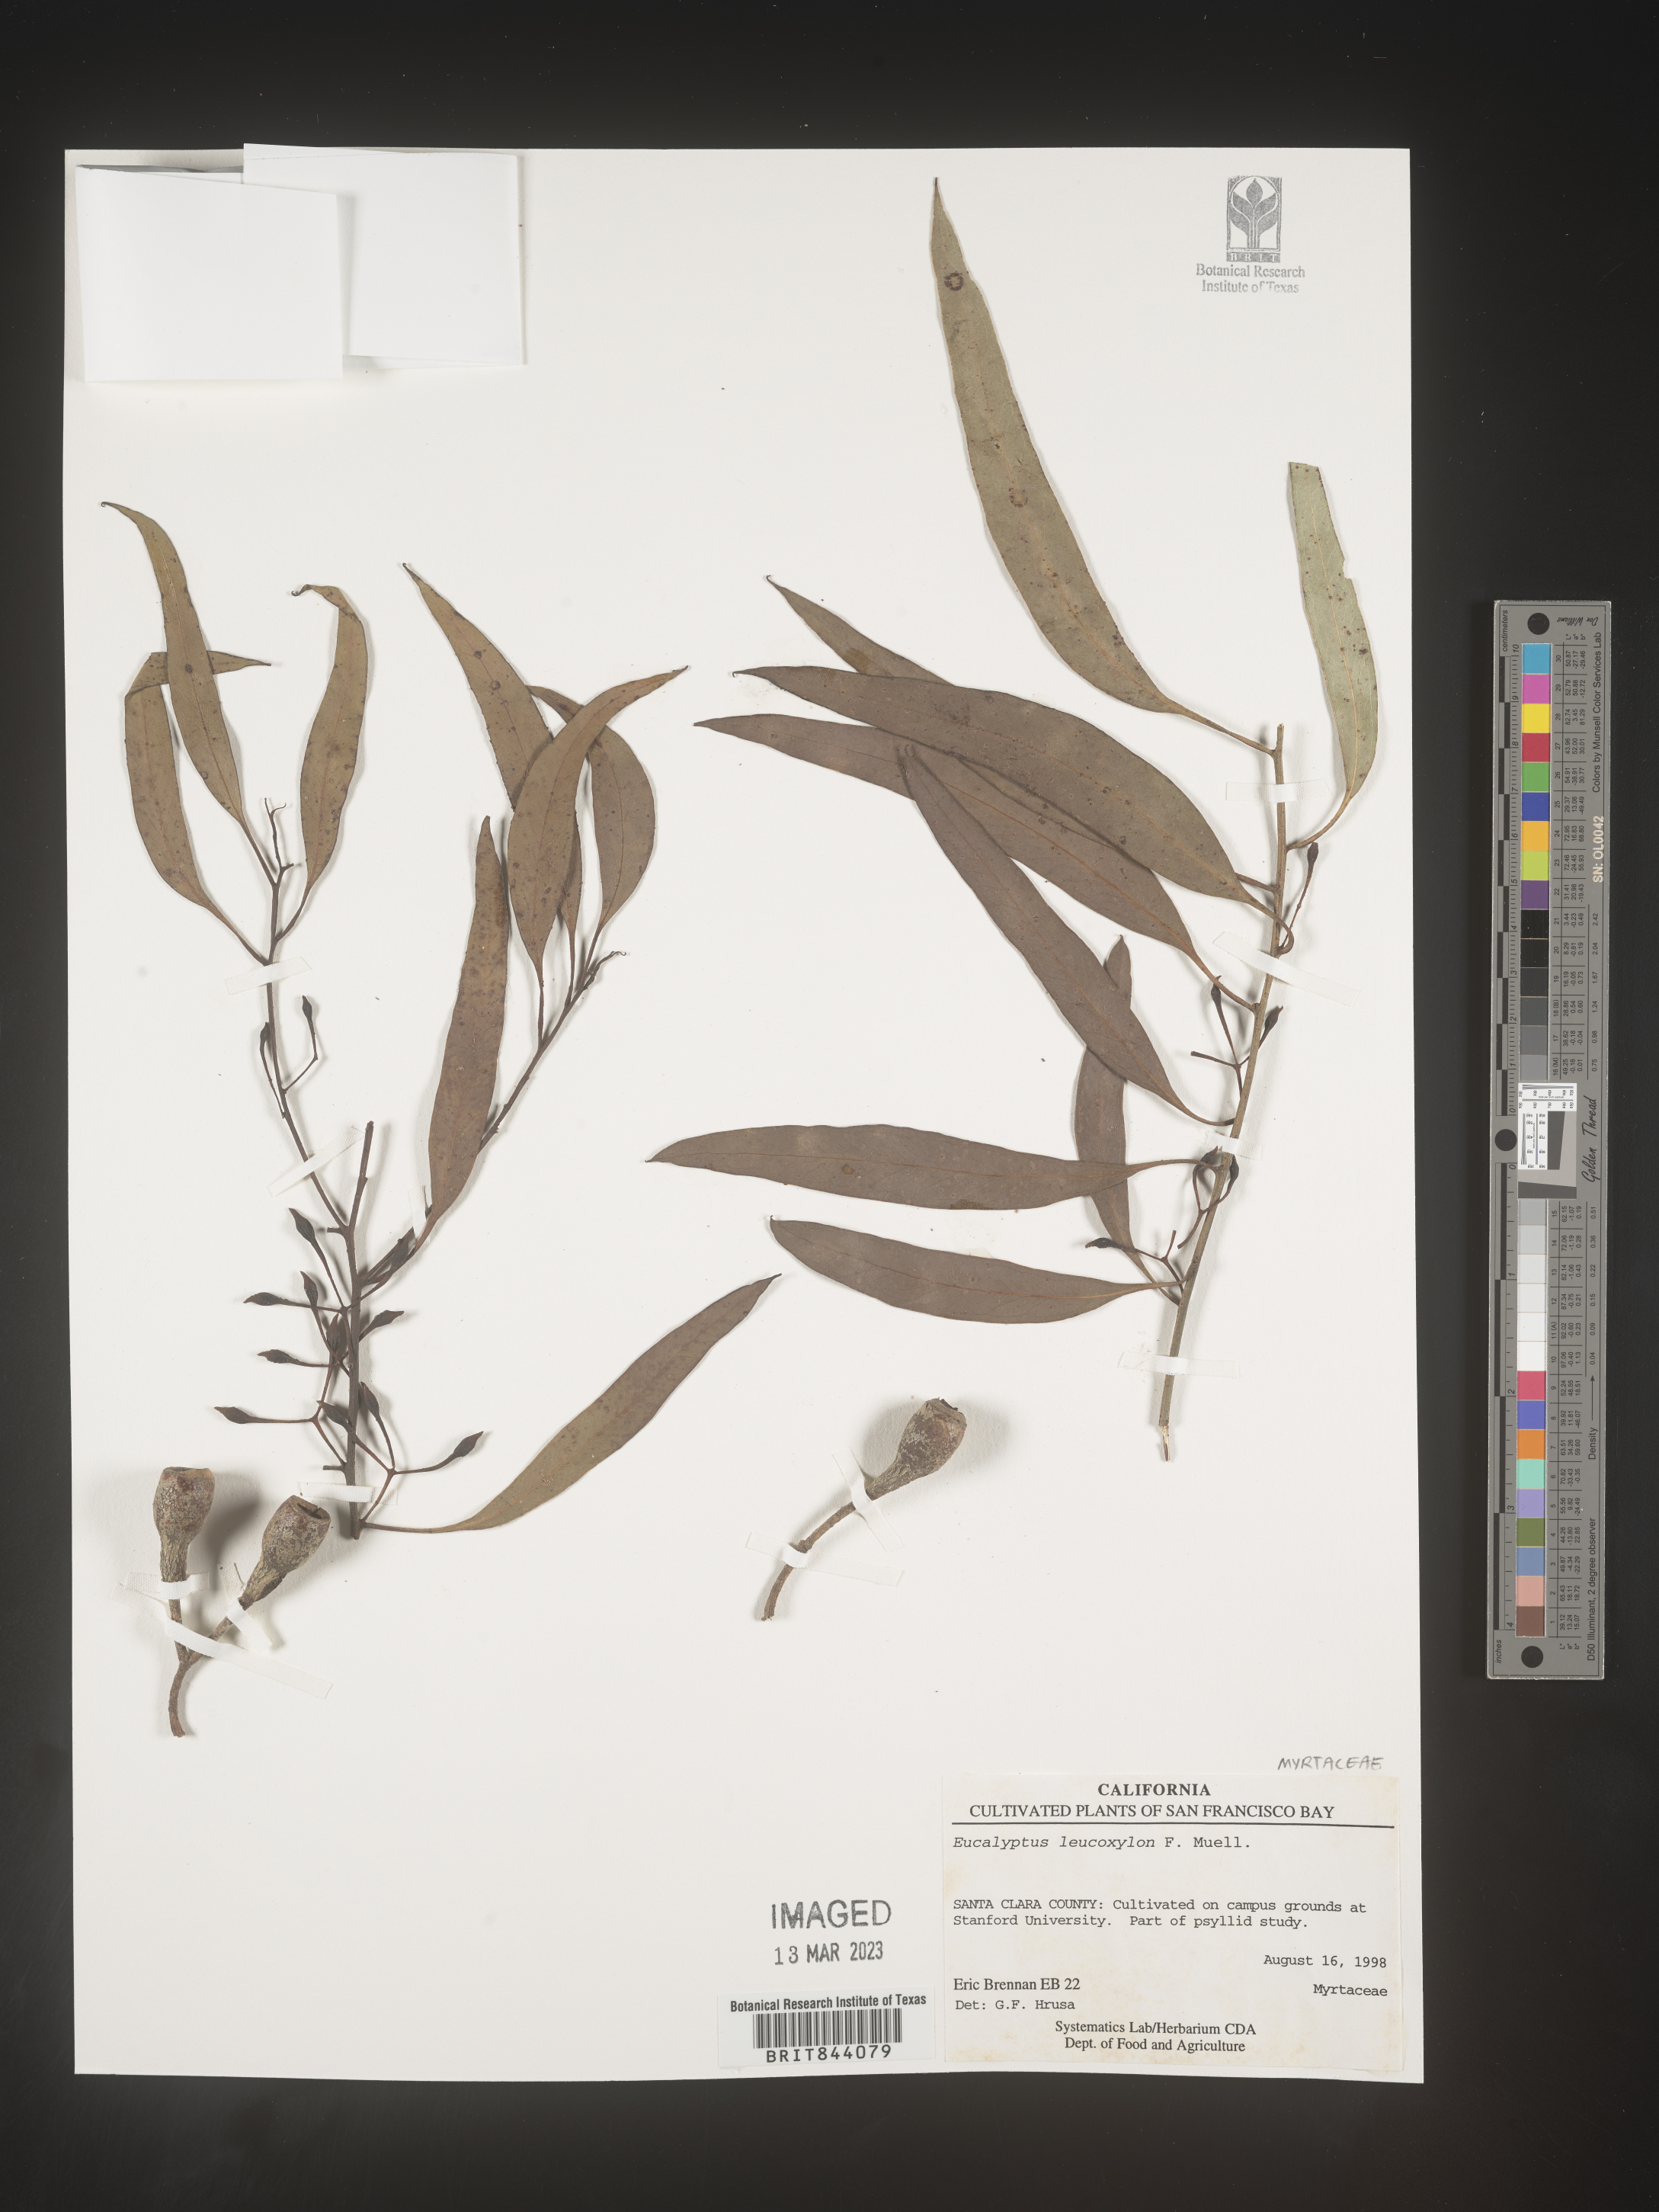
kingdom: Plantae
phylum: Tracheophyta
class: Magnoliopsida
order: Myrtales
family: Myrtaceae
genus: Eucalyptus
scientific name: Eucalyptus leucoxylon
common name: Blue gum
